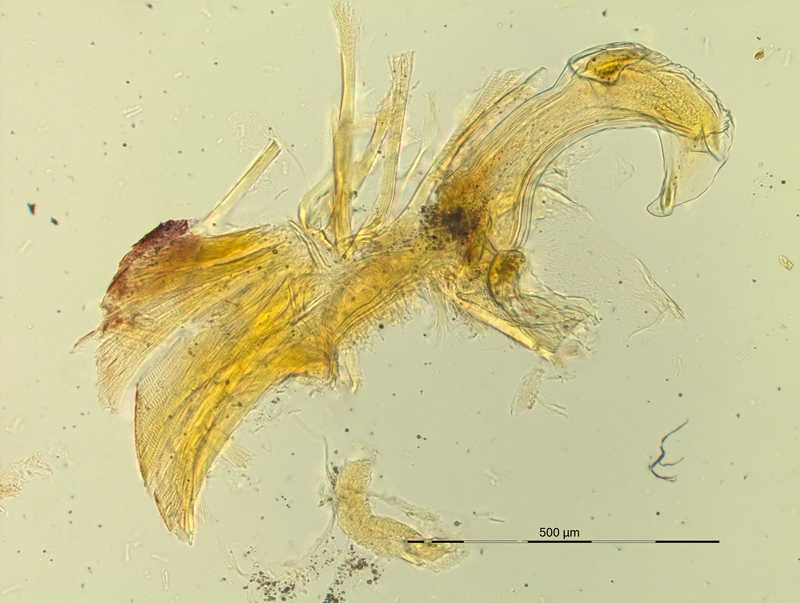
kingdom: Animalia
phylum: Arthropoda
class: Diplopoda
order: Chordeumatida
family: Craspedosomatidae
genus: Pyrgocyphosoma
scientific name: Pyrgocyphosoma aspidiorum
